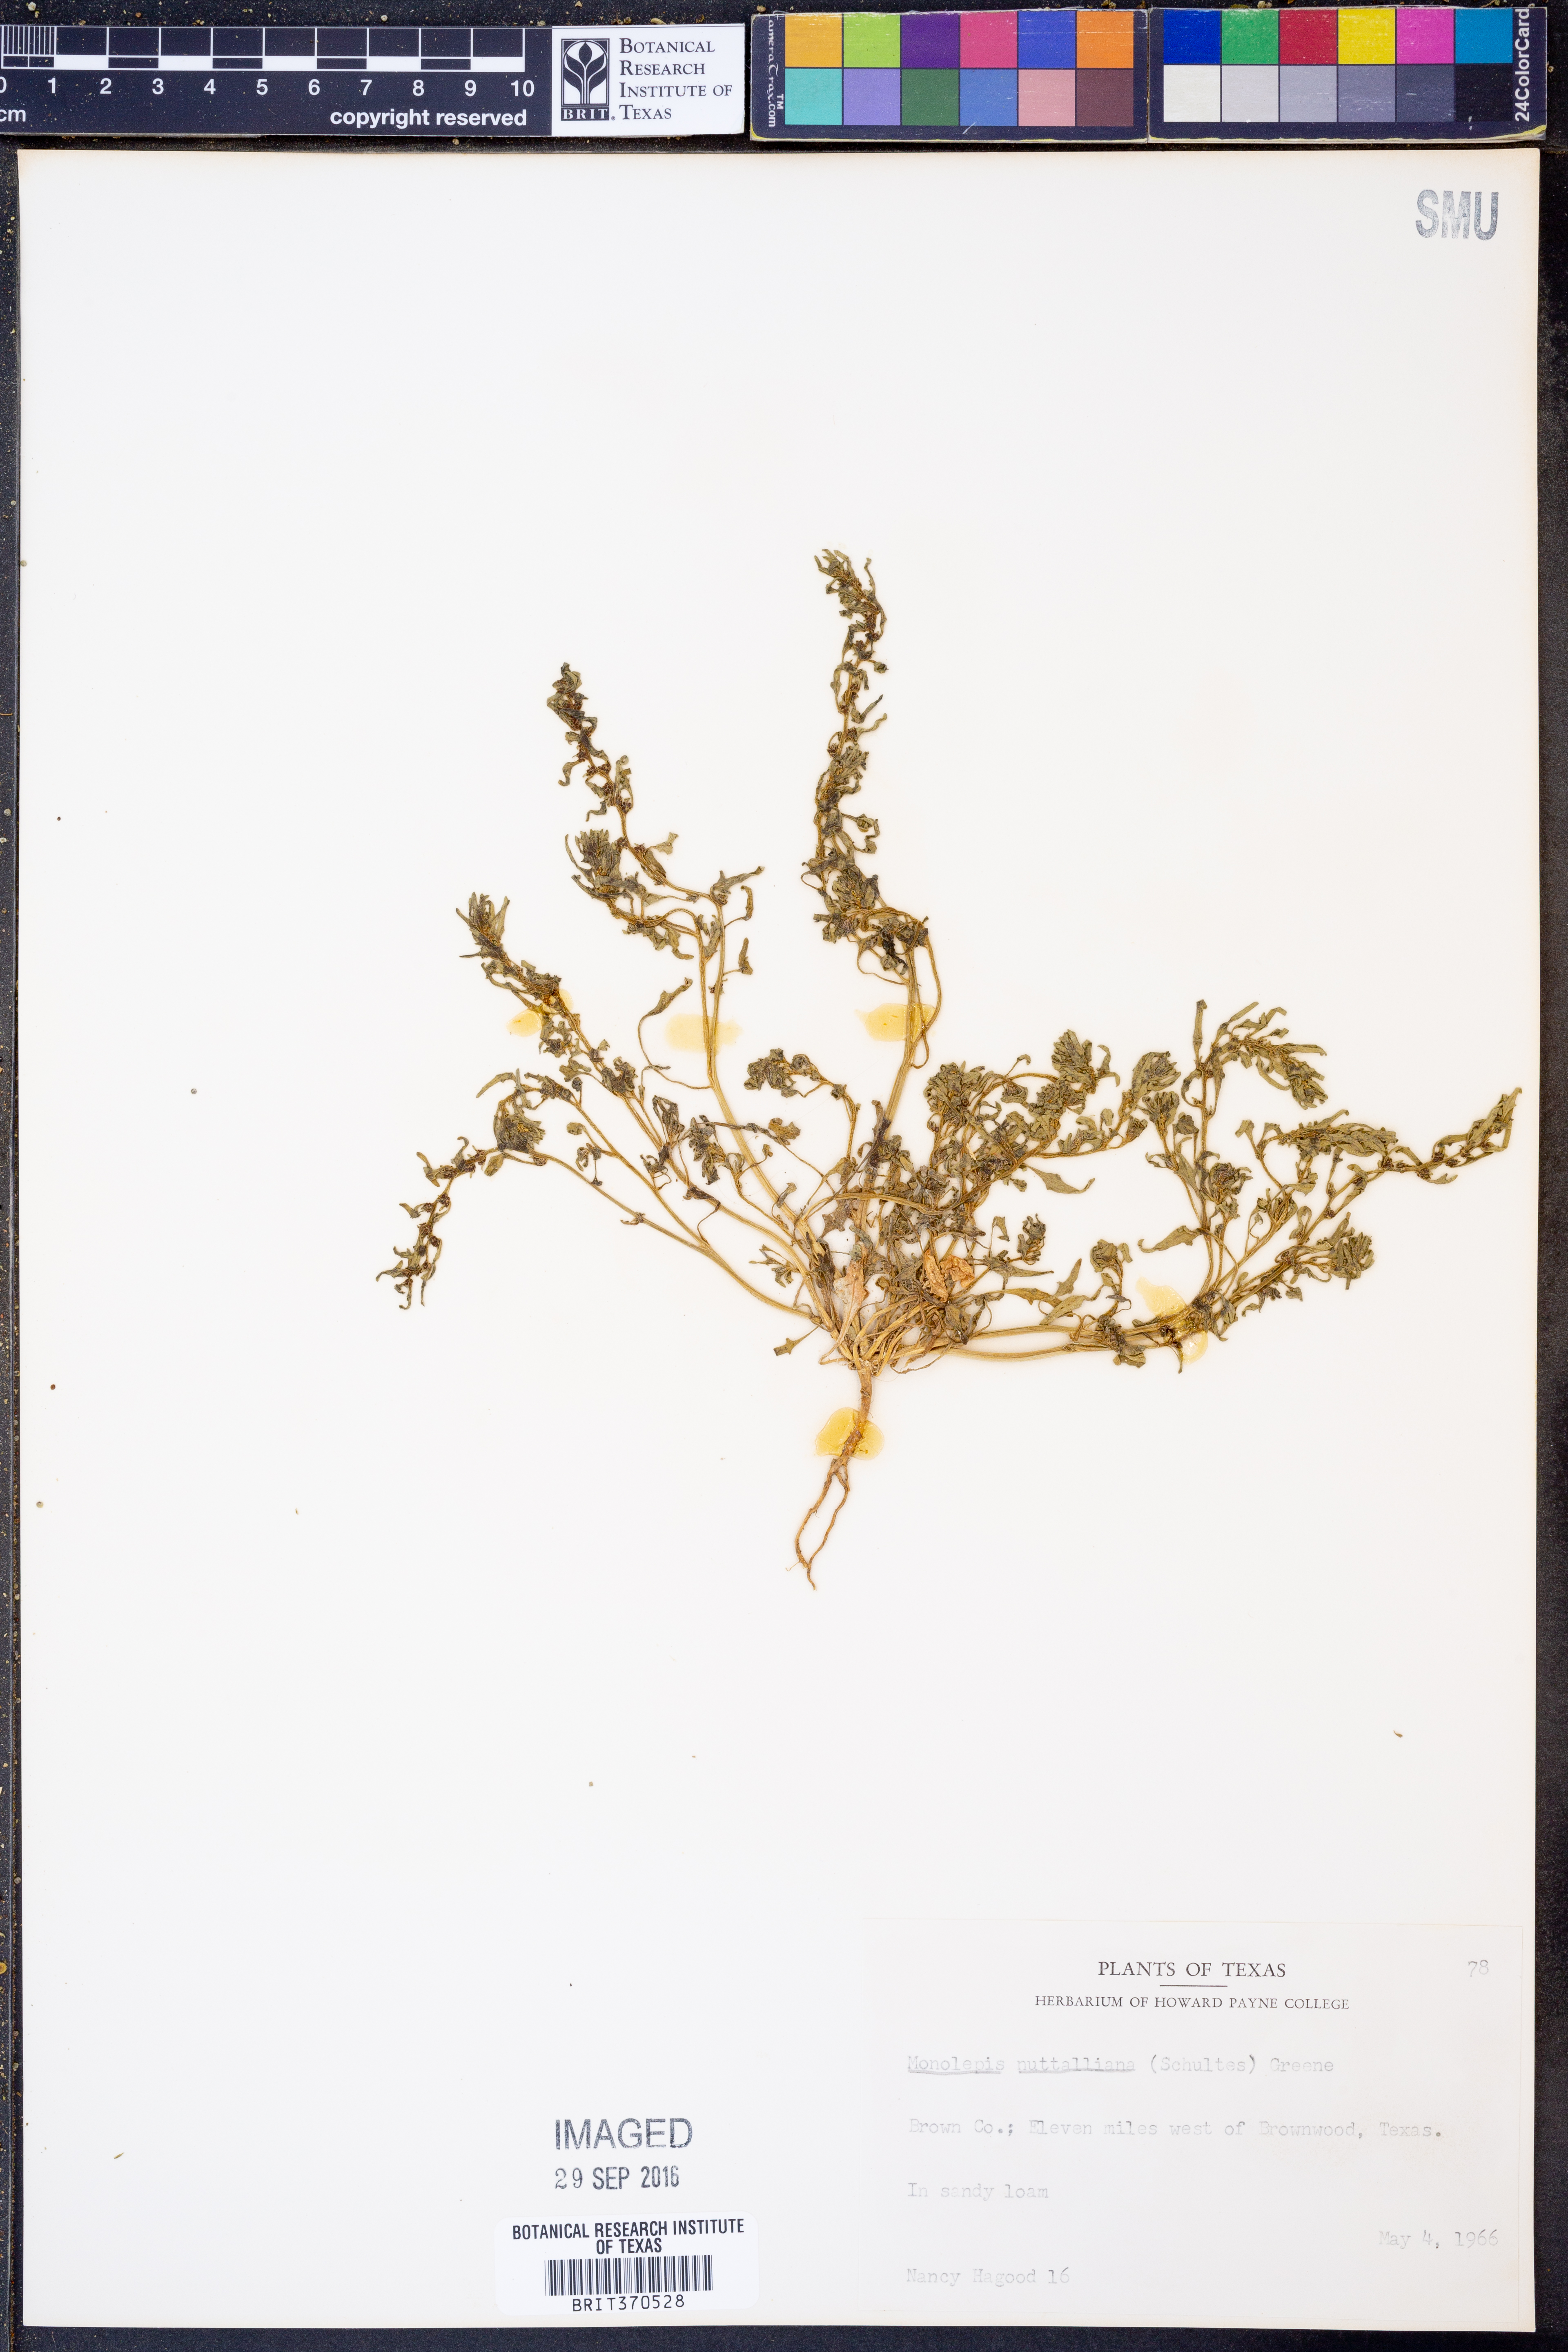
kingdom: Plantae
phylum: Tracheophyta
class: Magnoliopsida
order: Caryophyllales
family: Amaranthaceae
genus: Blitum
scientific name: Blitum nuttallianum
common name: Poverty-weed
